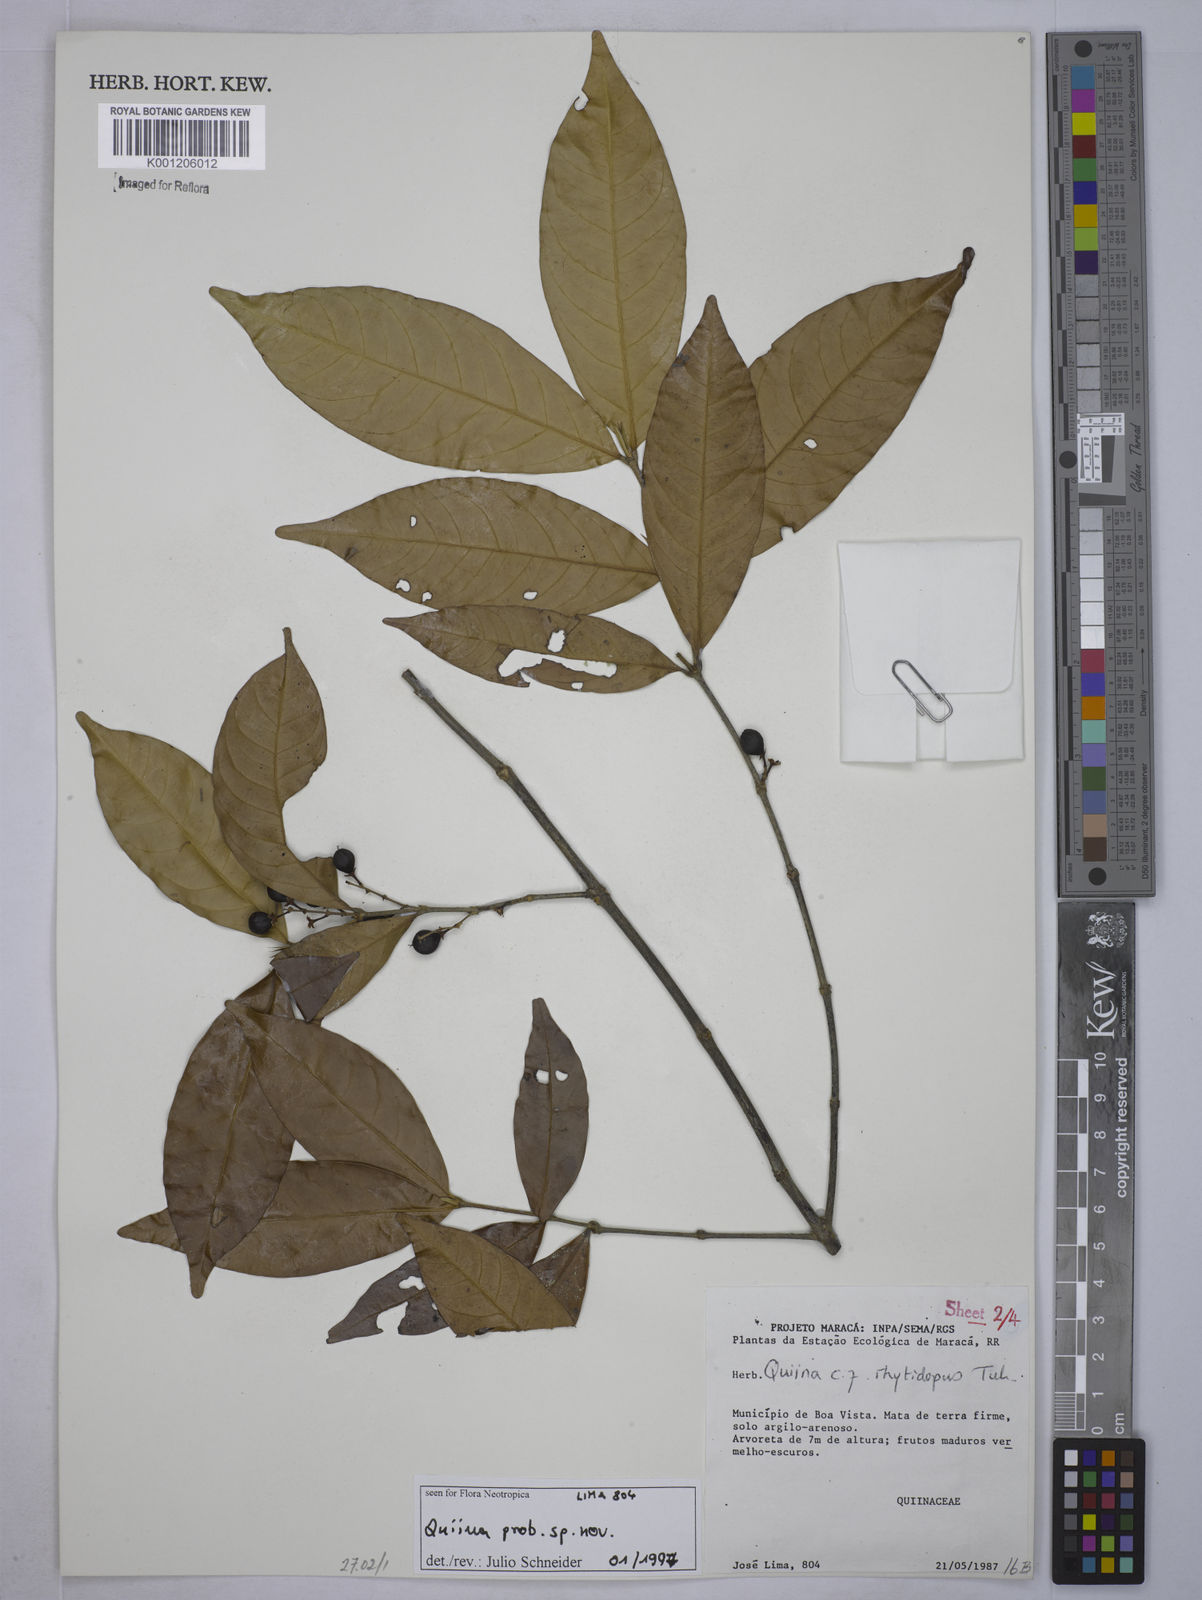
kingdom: Plantae
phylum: Tracheophyta
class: Magnoliopsida
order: Malpighiales
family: Quiinaceae
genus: Quiina
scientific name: Quiina
